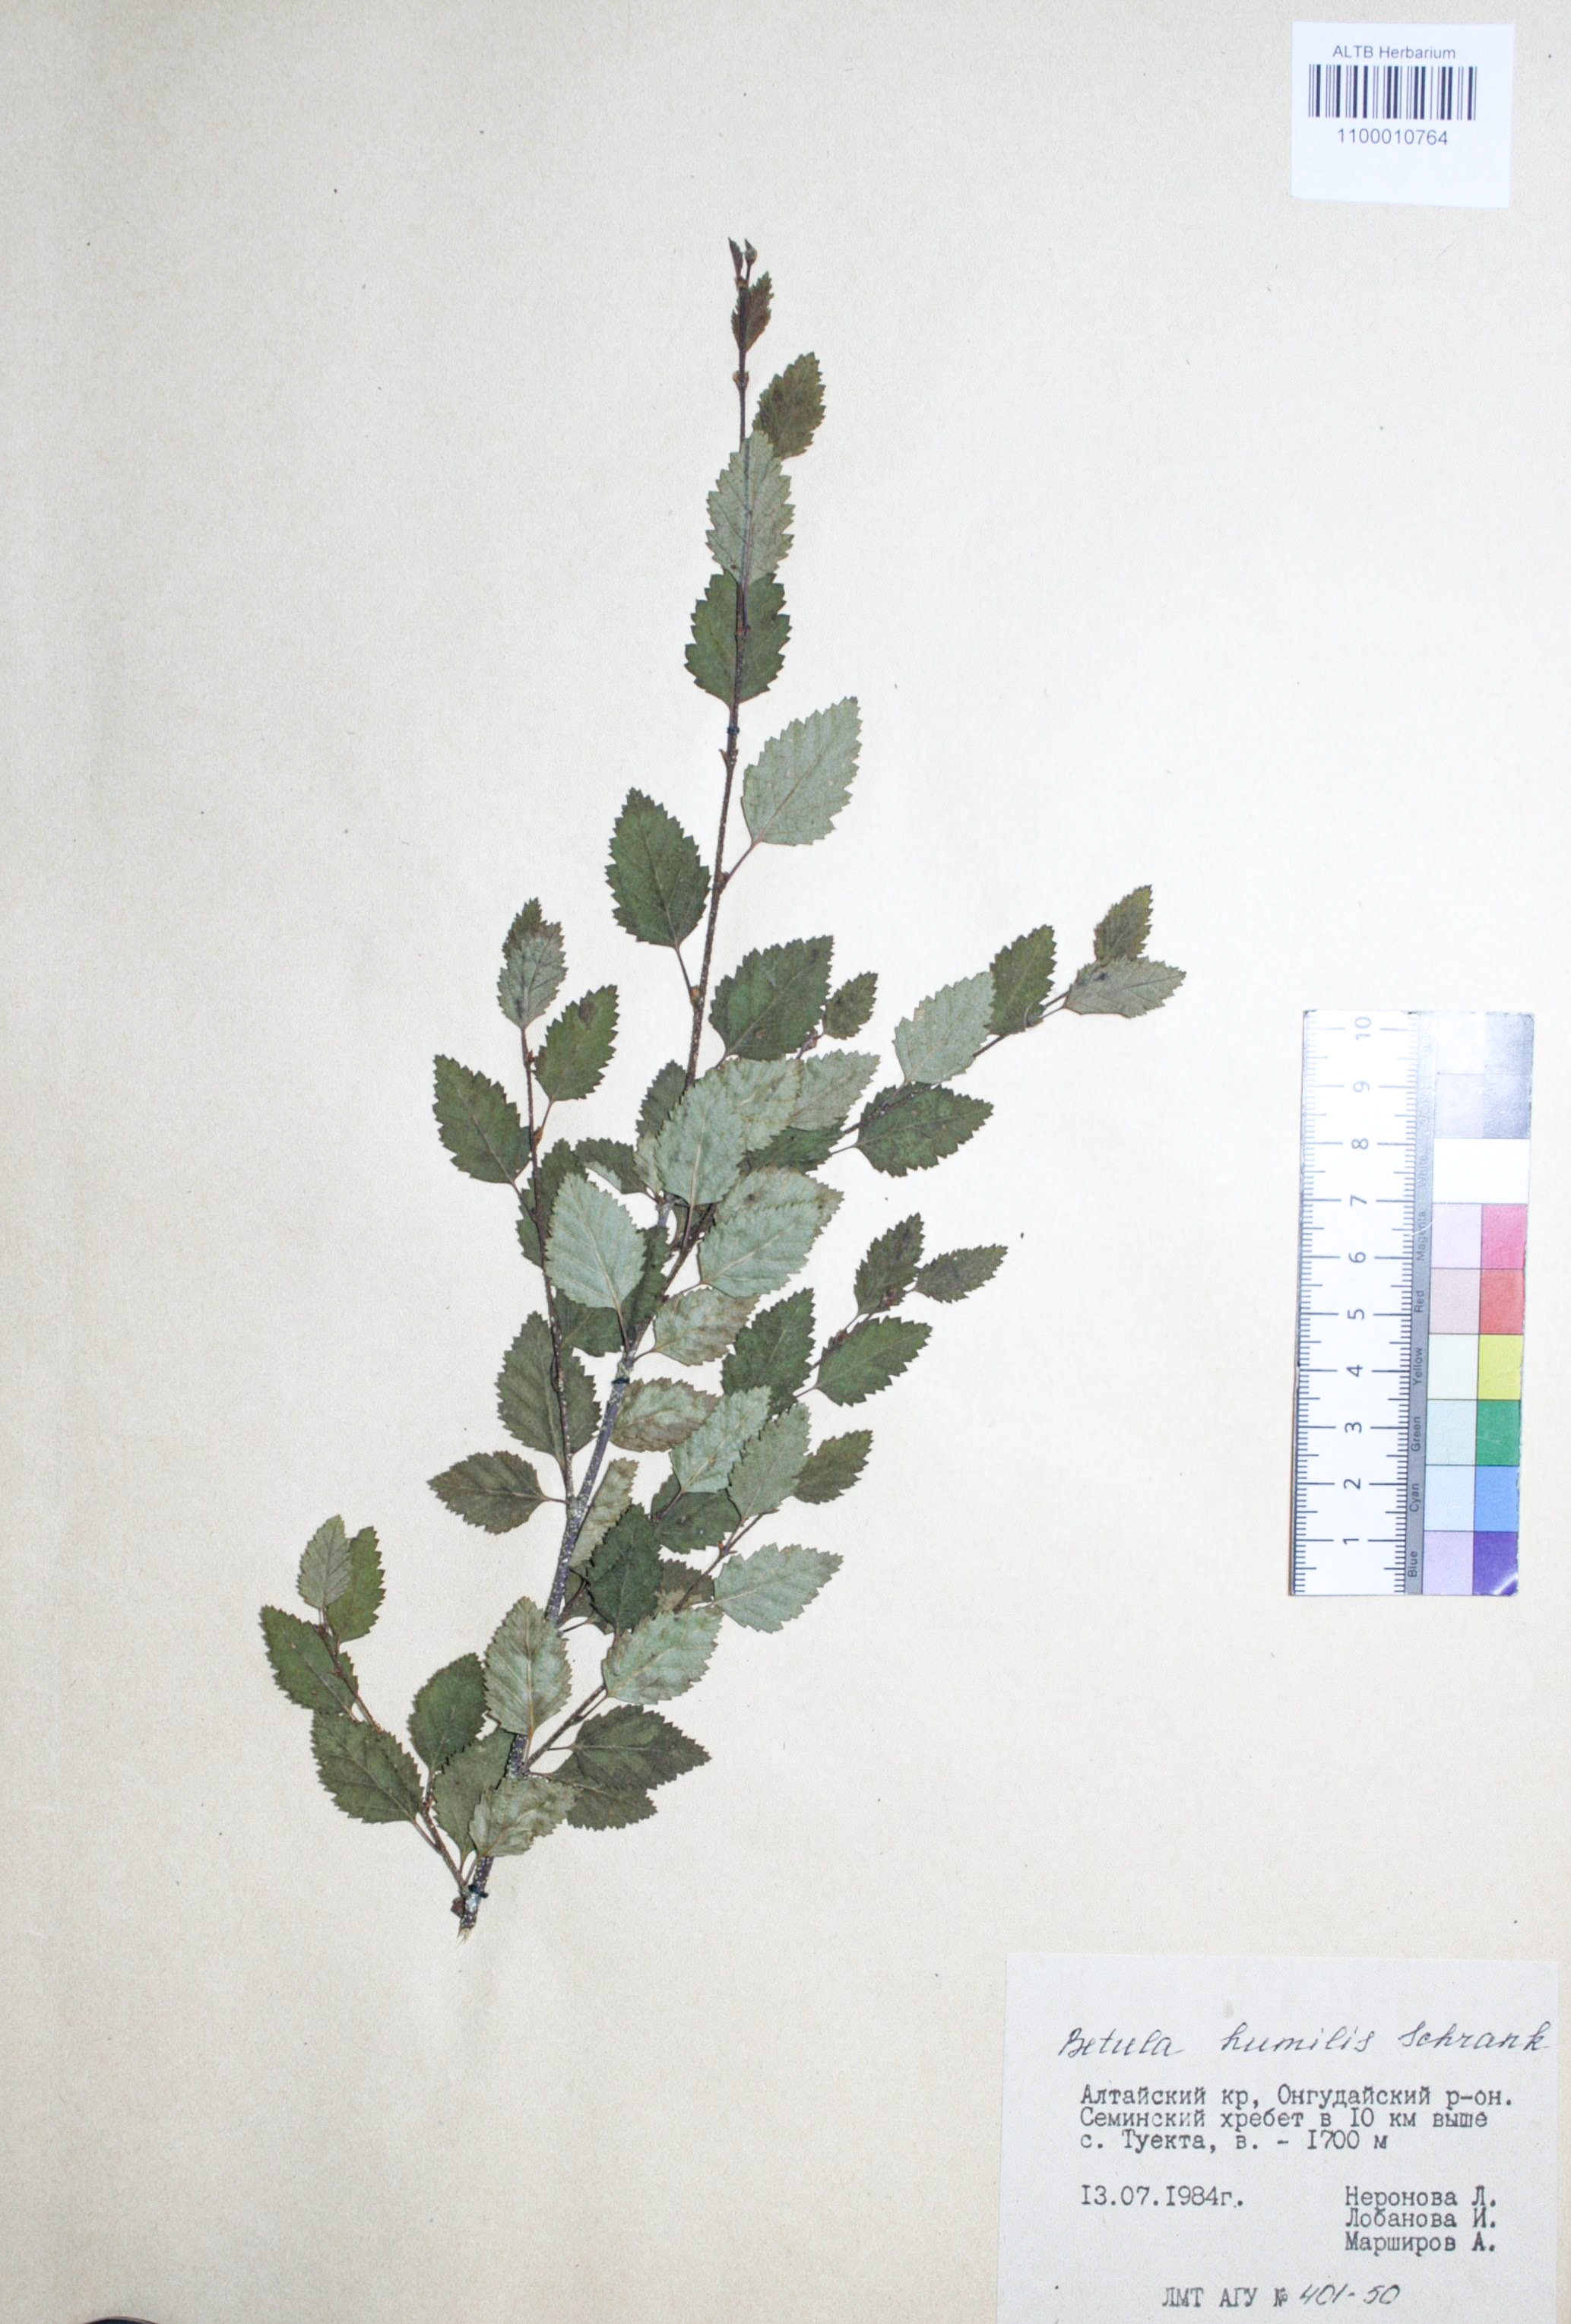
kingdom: Plantae
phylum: Tracheophyta
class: Magnoliopsida
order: Fagales
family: Betulaceae
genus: Betula
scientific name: Betula humilis
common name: Shrubby birch
